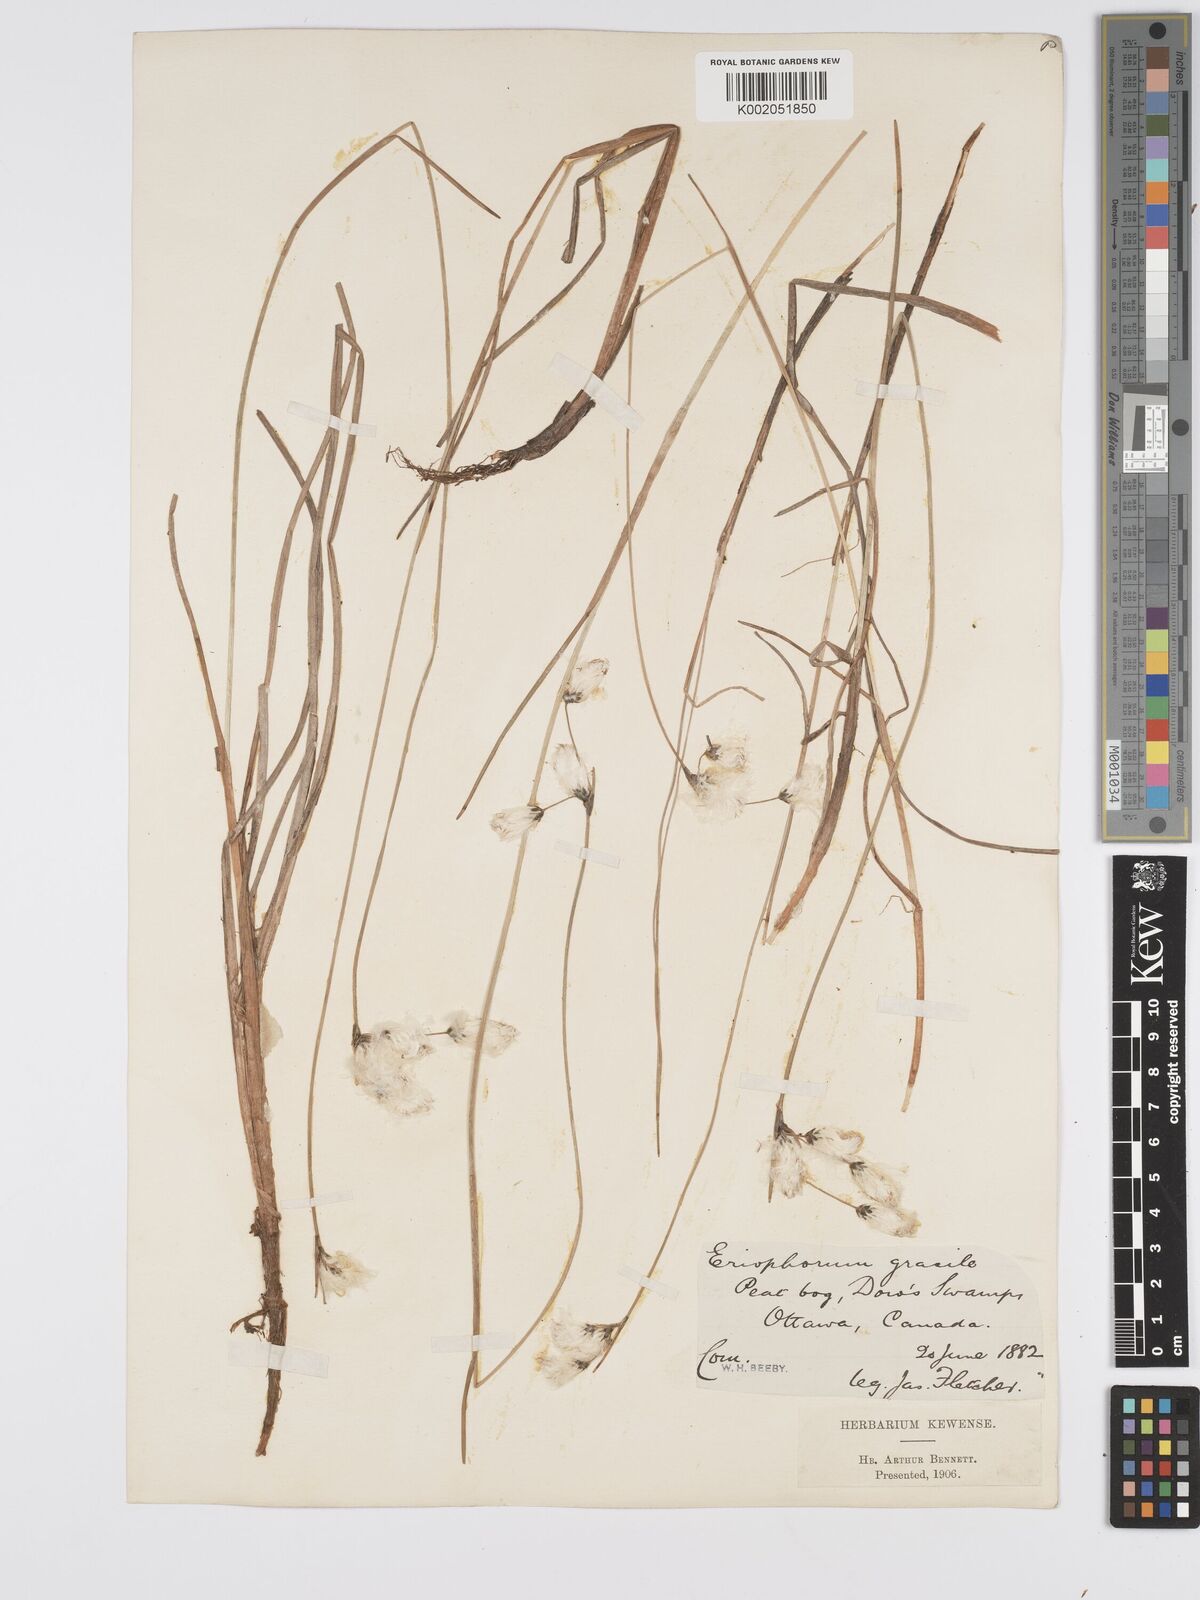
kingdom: Plantae
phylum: Tracheophyta
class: Liliopsida
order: Poales
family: Cyperaceae
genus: Eriophorum
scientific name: Eriophorum gracile
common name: Slender cottongrass
